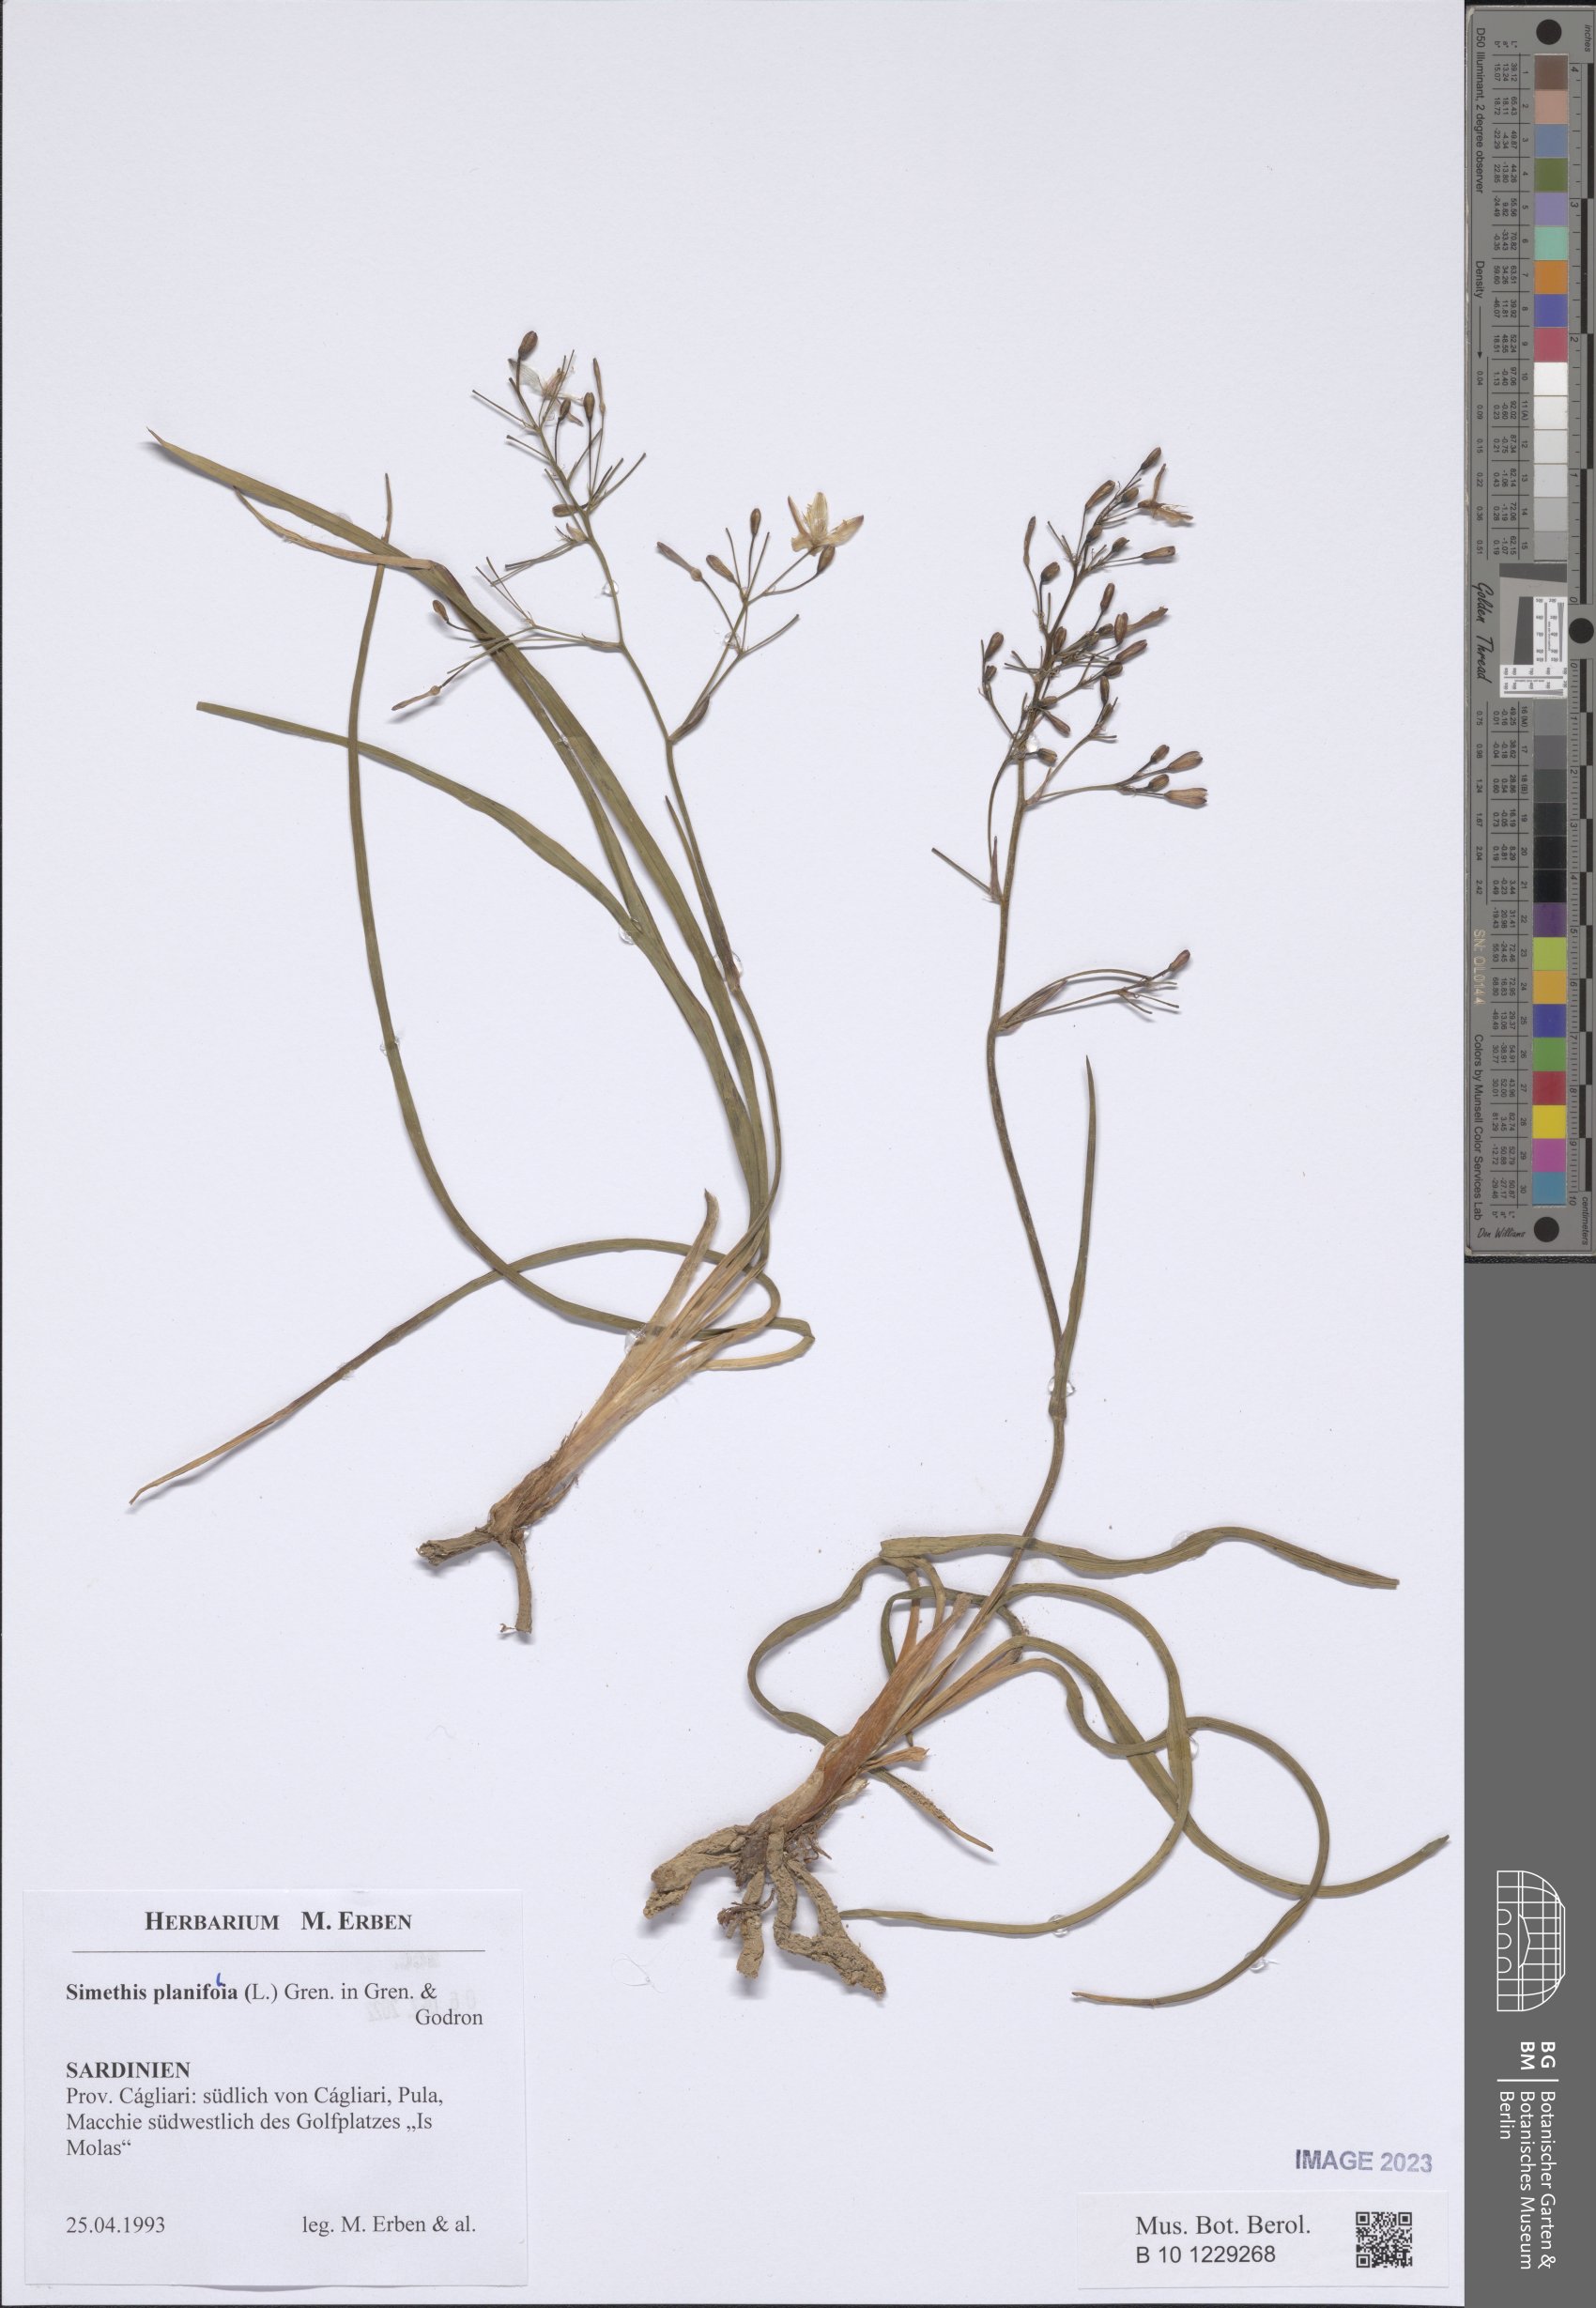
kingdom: Plantae
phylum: Tracheophyta
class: Liliopsida
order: Asparagales
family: Asphodelaceae
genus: Simethis
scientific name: Simethis mattiazzii
